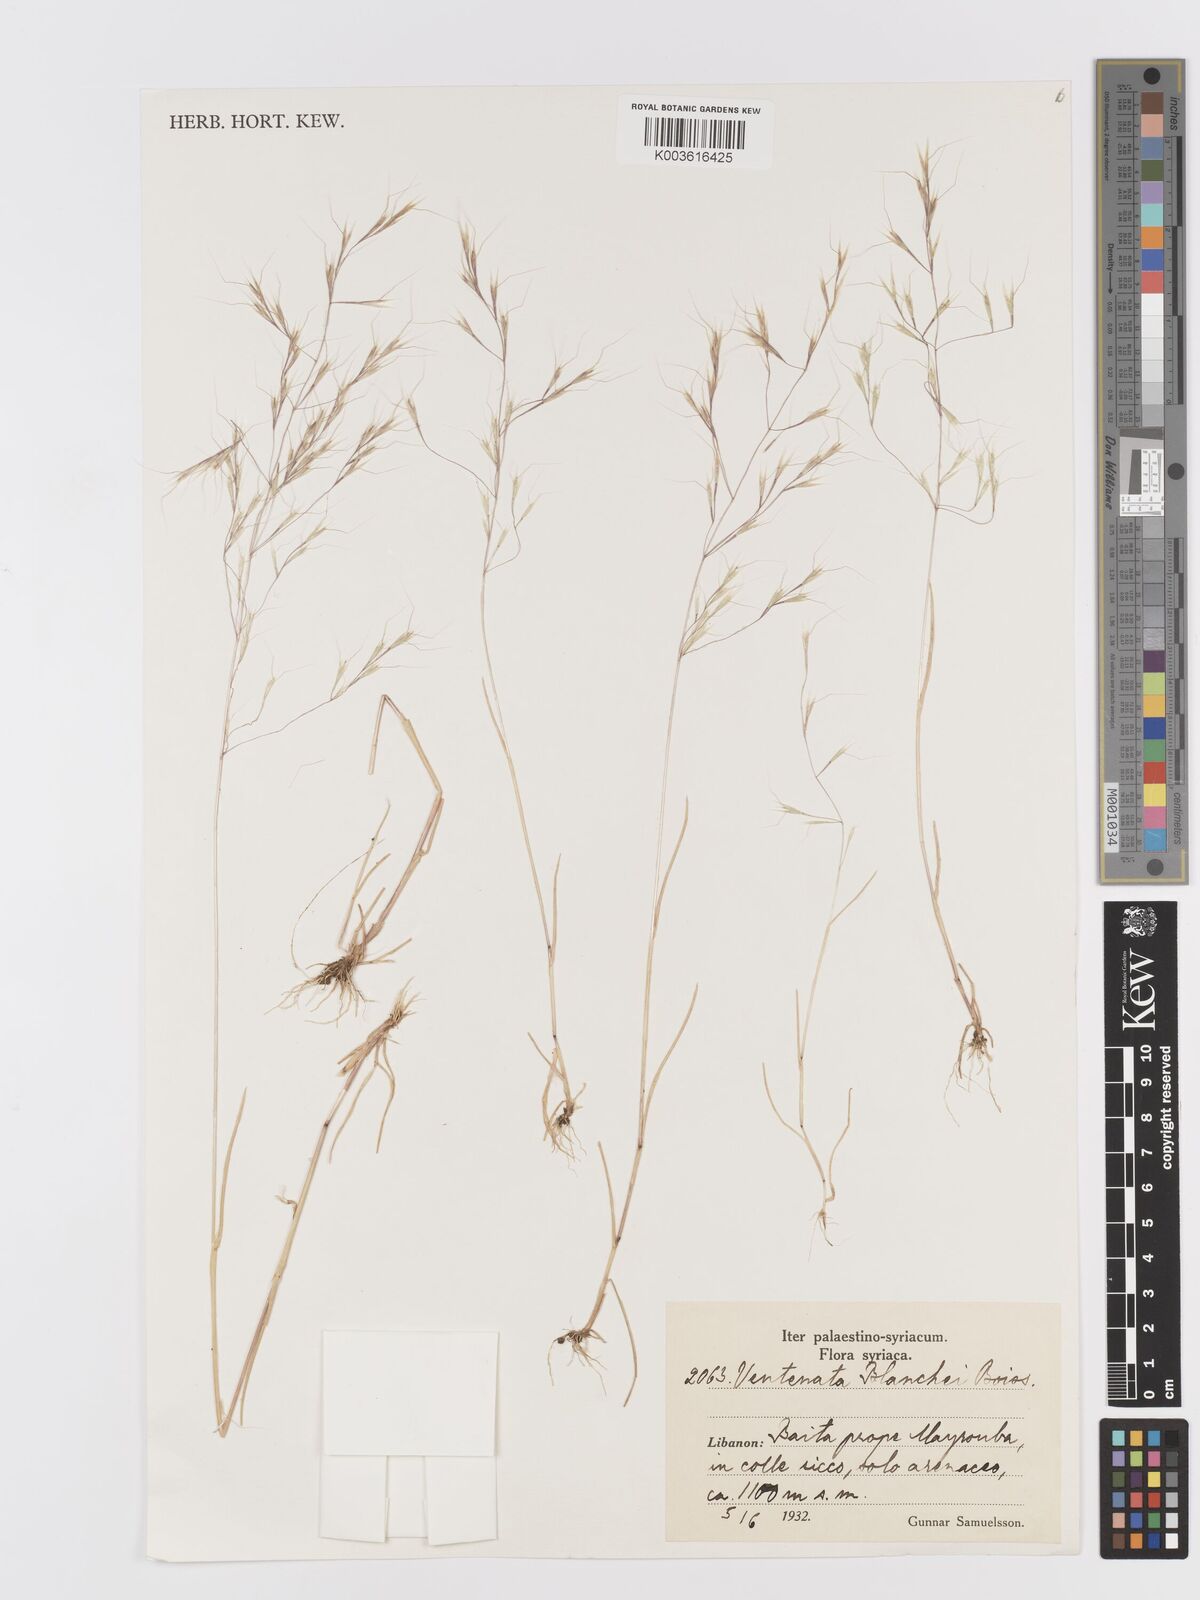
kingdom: Plantae
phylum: Tracheophyta
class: Liliopsida
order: Poales
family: Poaceae
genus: Ventenata
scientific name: Ventenata blanchei
